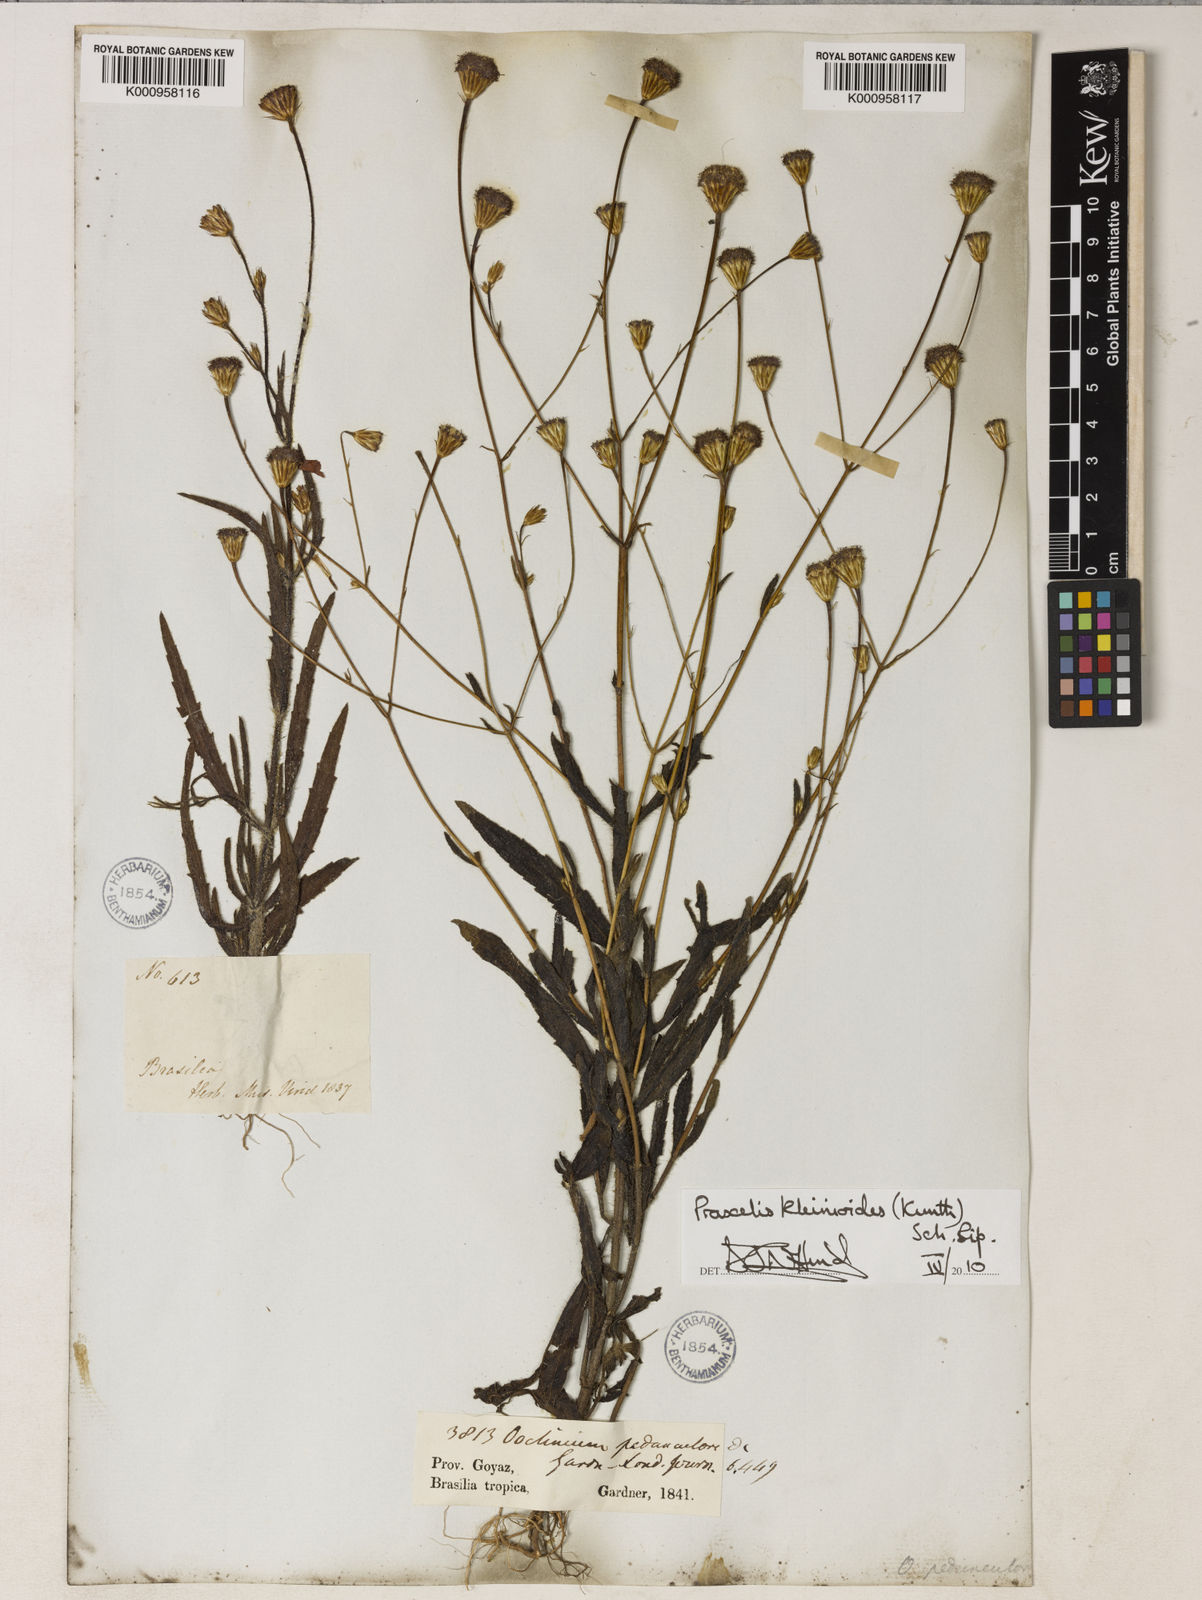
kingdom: Plantae
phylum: Tracheophyta
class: Magnoliopsida
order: Asterales
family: Asteraceae
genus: Praxelis
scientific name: Praxelis kleinioides
